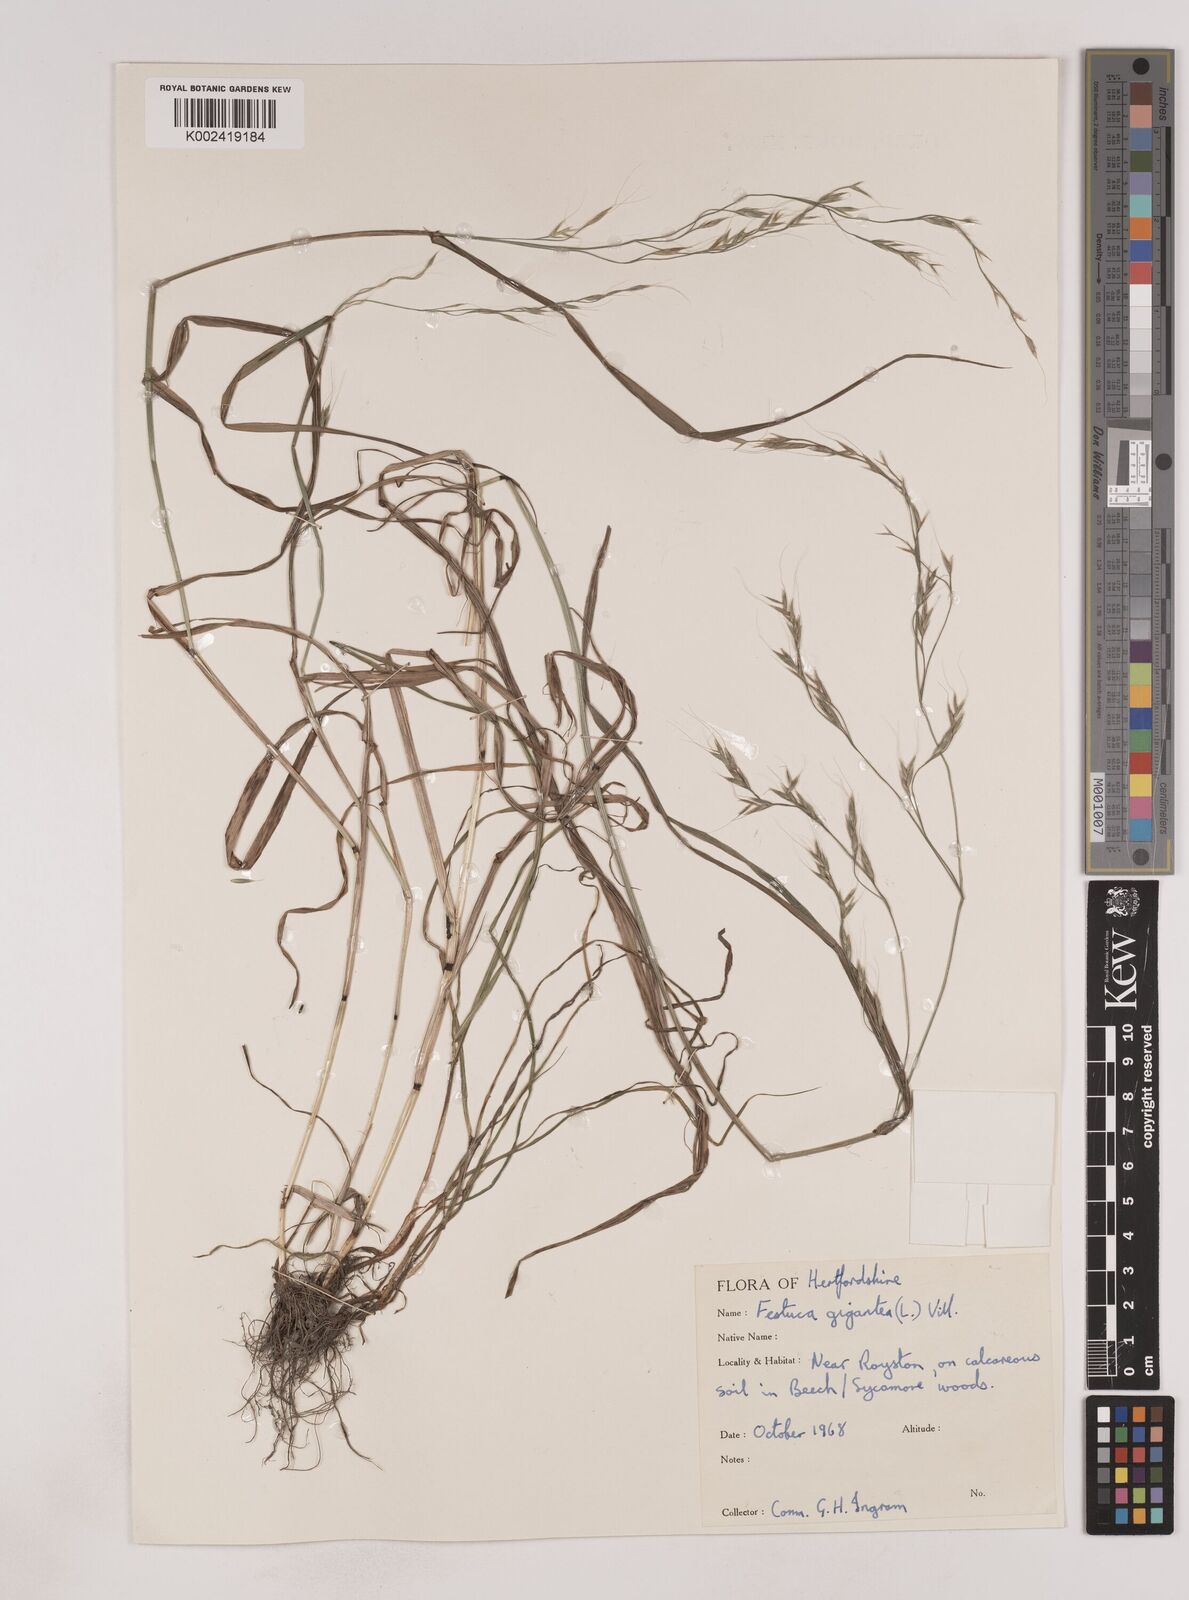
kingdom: Plantae
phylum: Tracheophyta
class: Liliopsida
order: Poales
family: Poaceae
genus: Lolium
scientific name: Lolium giganteum
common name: Giant fescue
